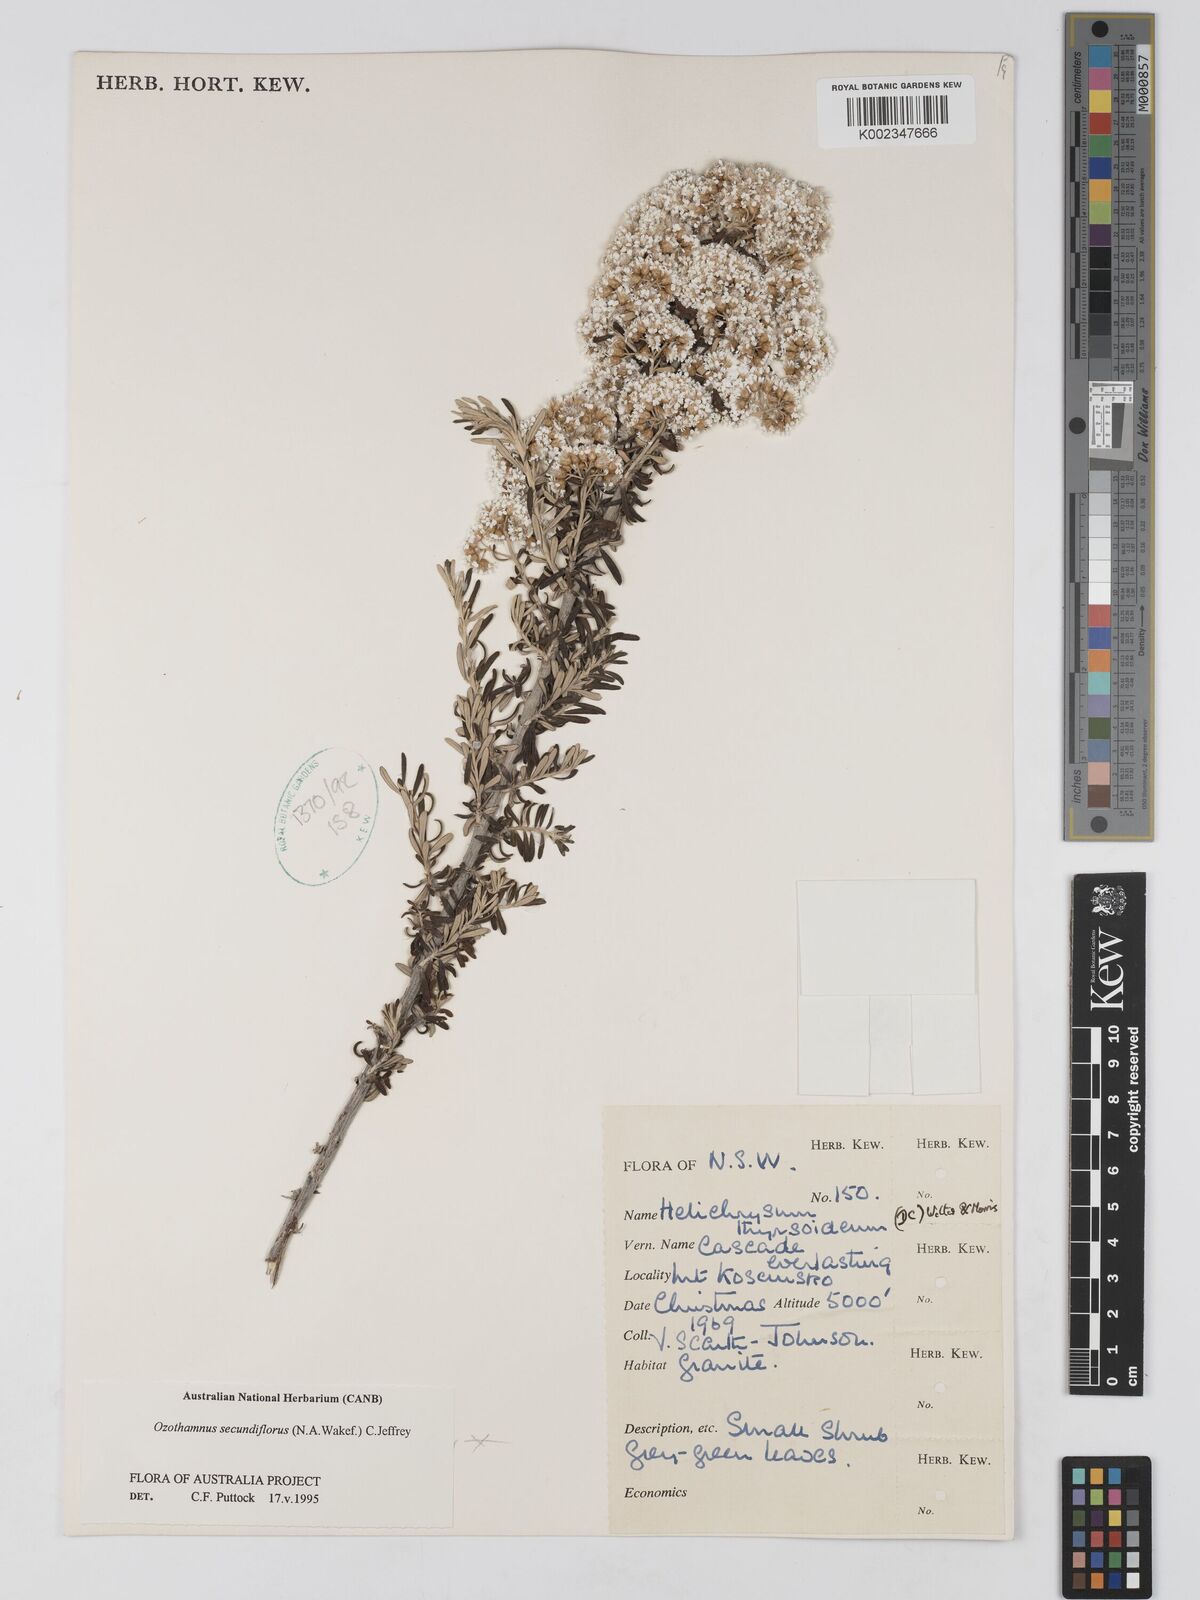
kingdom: Plantae
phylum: Tracheophyta
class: Magnoliopsida
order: Asterales
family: Asteraceae
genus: Ozothamnus
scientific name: Ozothamnus secundiflorus
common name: Cascade everlasting
